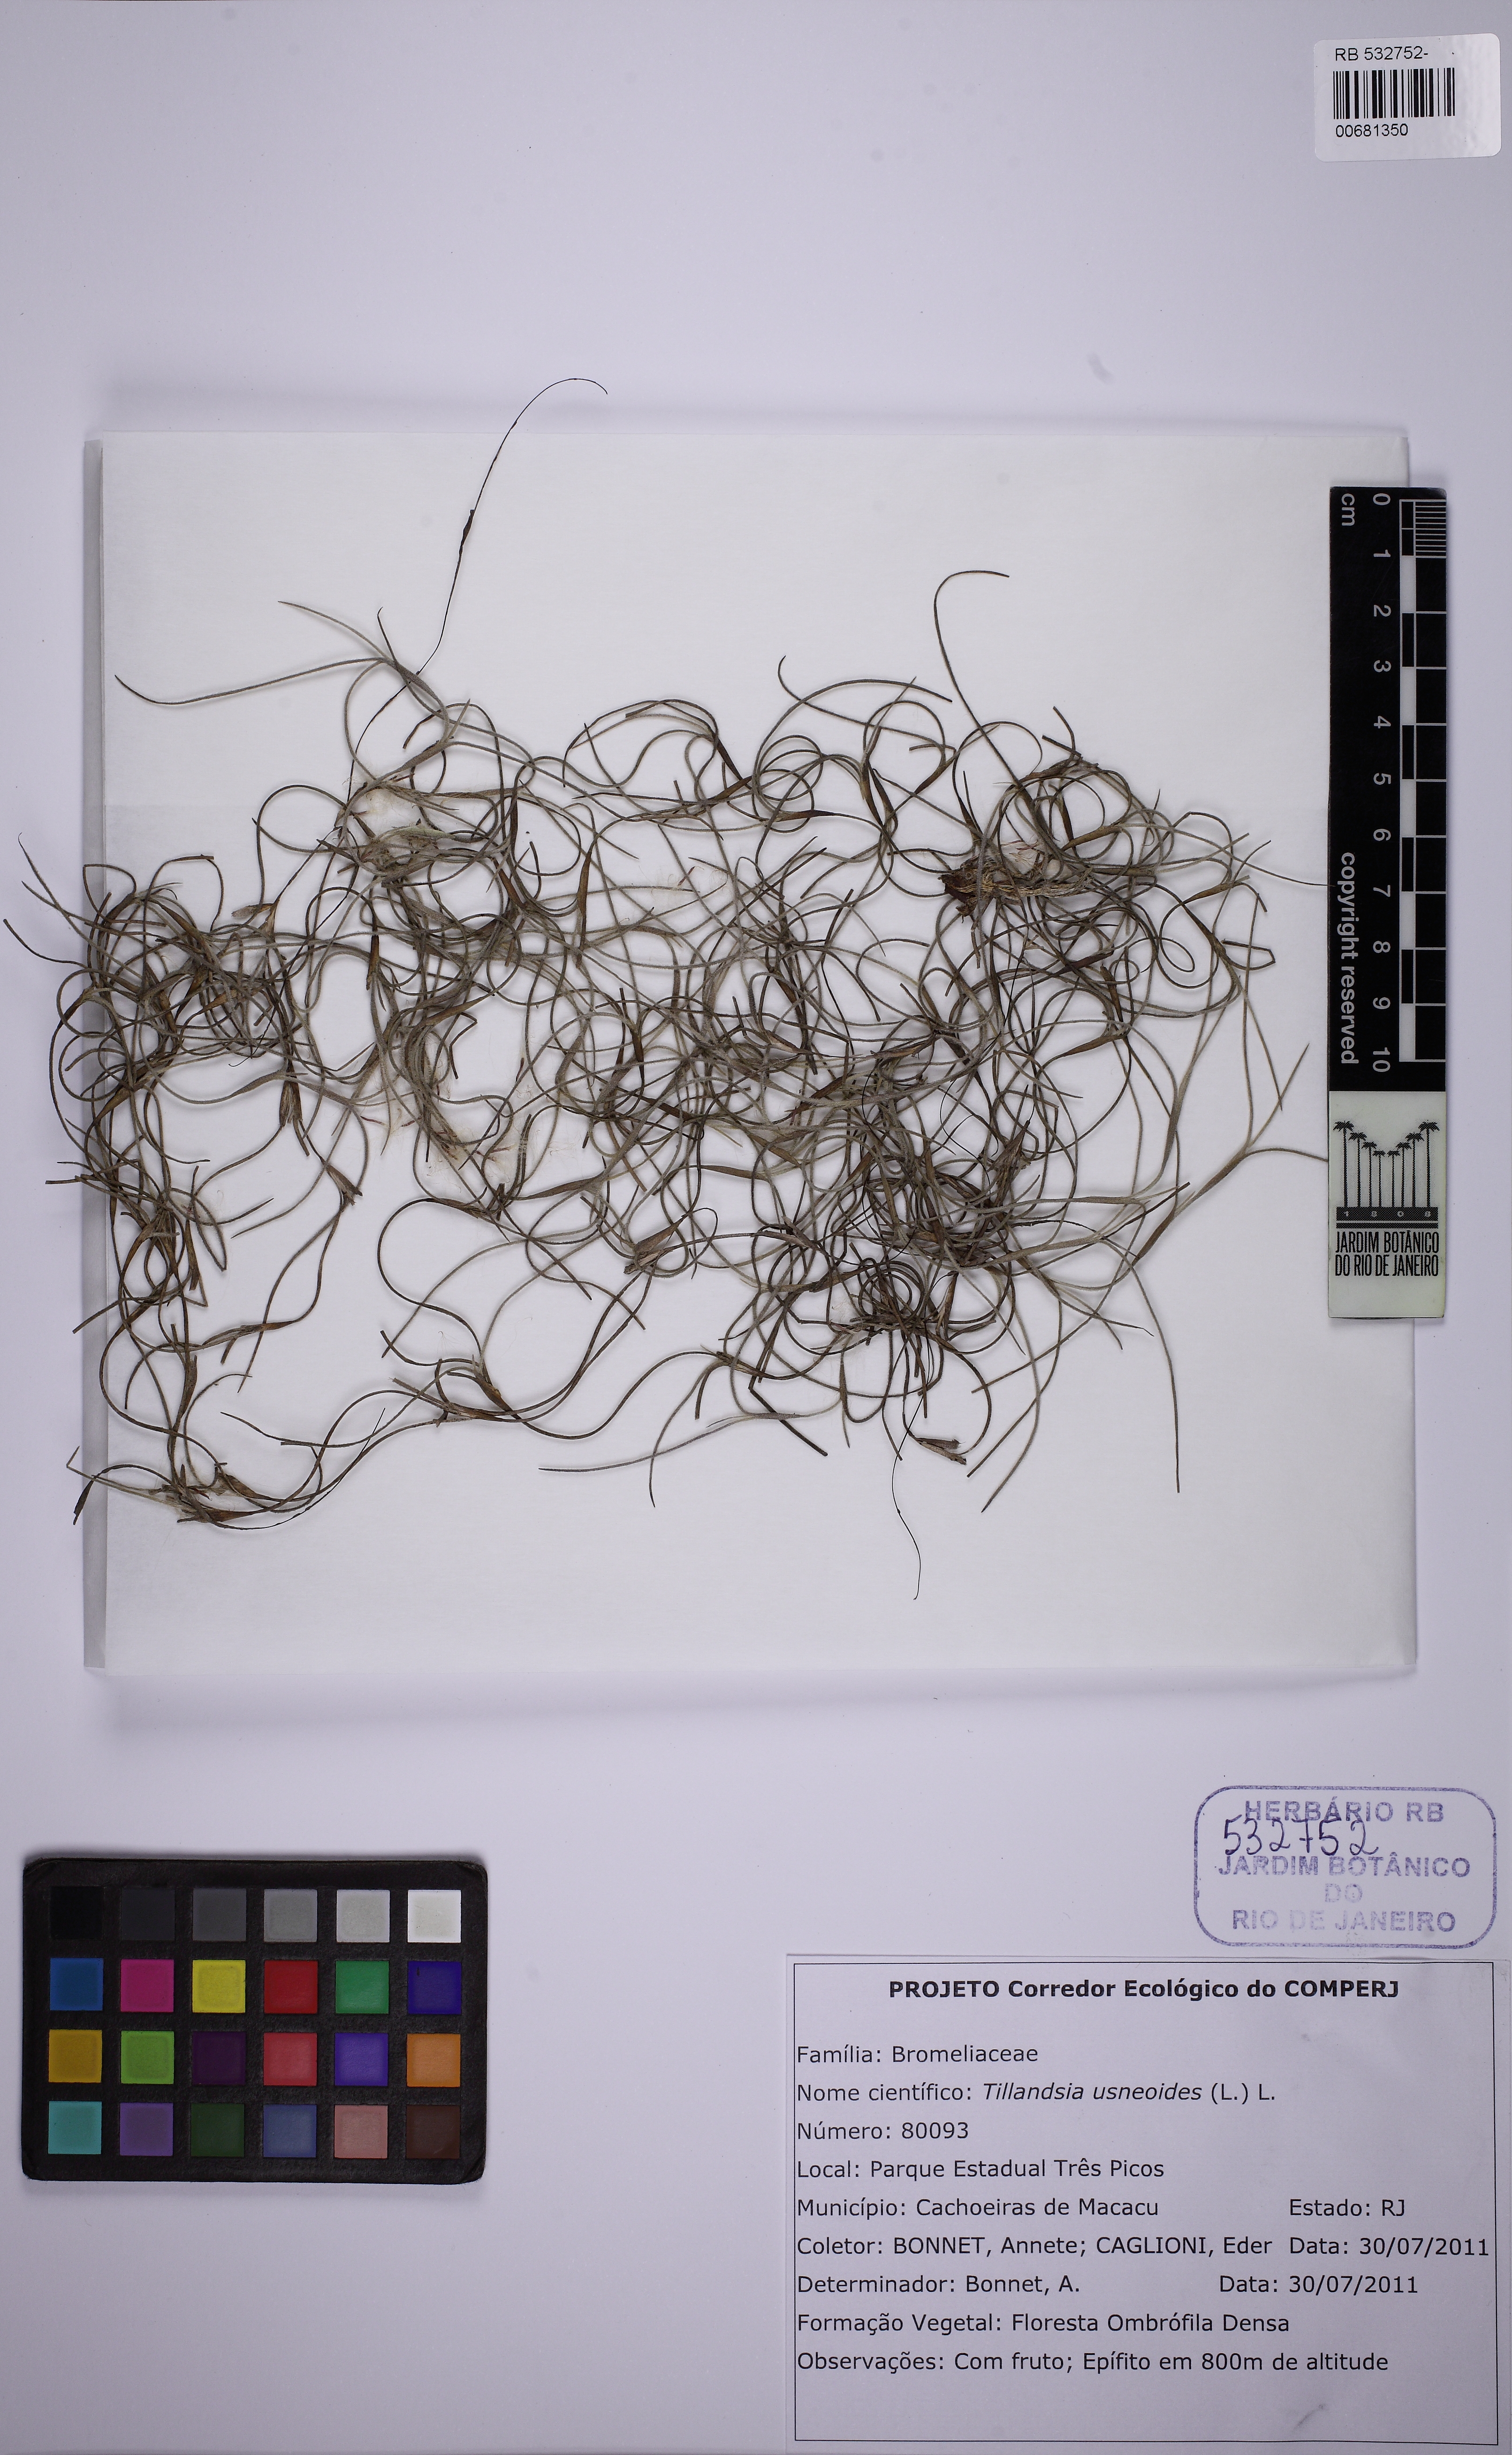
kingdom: Plantae
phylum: Tracheophyta
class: Liliopsida
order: Poales
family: Bromeliaceae
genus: Tillandsia
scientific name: Tillandsia usneoides
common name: Spanish moss
